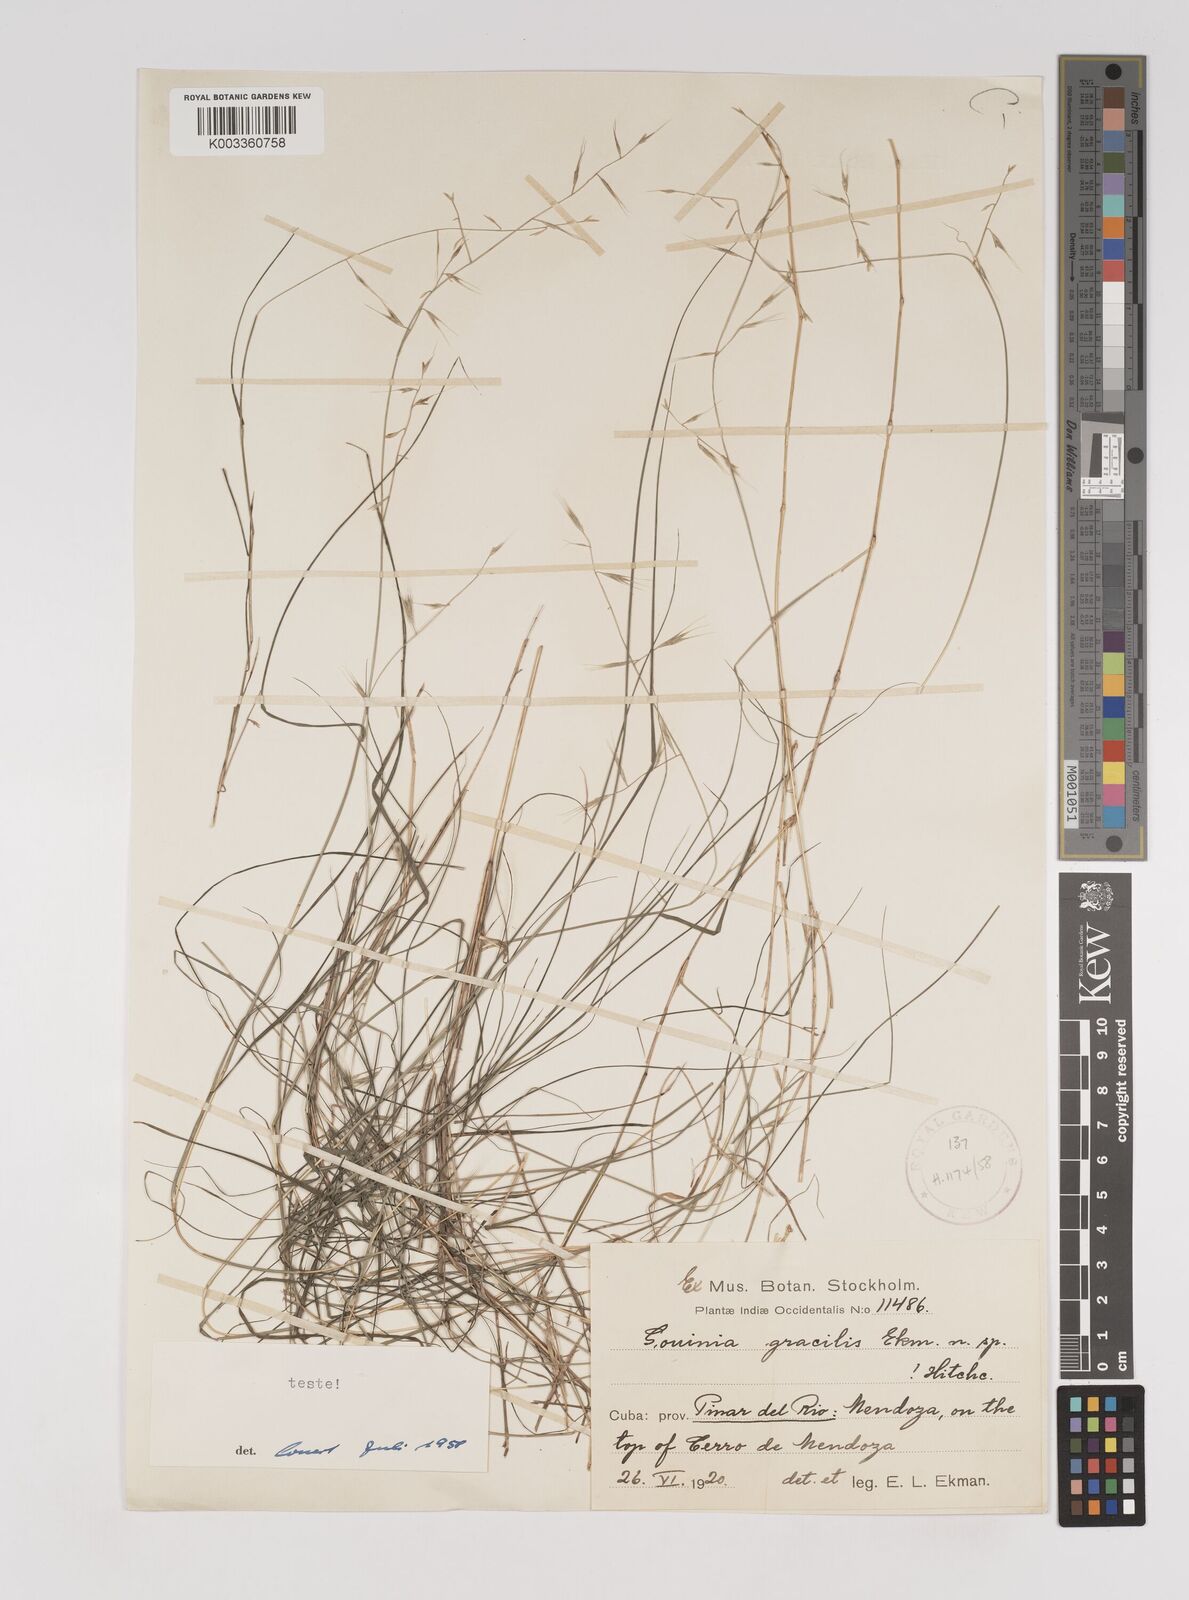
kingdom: Plantae
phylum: Tracheophyta
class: Liliopsida
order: Poales
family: Poaceae
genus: Gouinia
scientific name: Gouinia gracilis
